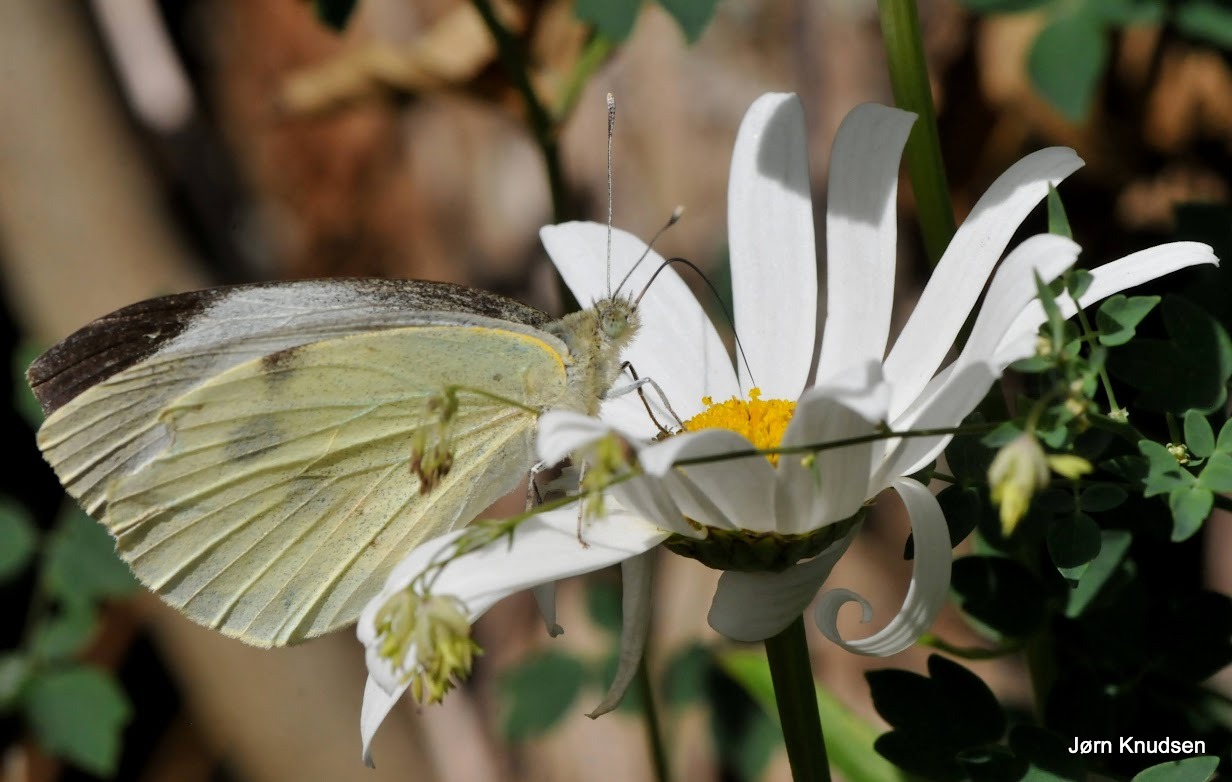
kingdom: Animalia
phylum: Arthropoda
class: Insecta
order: Lepidoptera
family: Pieridae
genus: Pieris
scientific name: Pieris brassicae
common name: Stor kålsommerfugl
